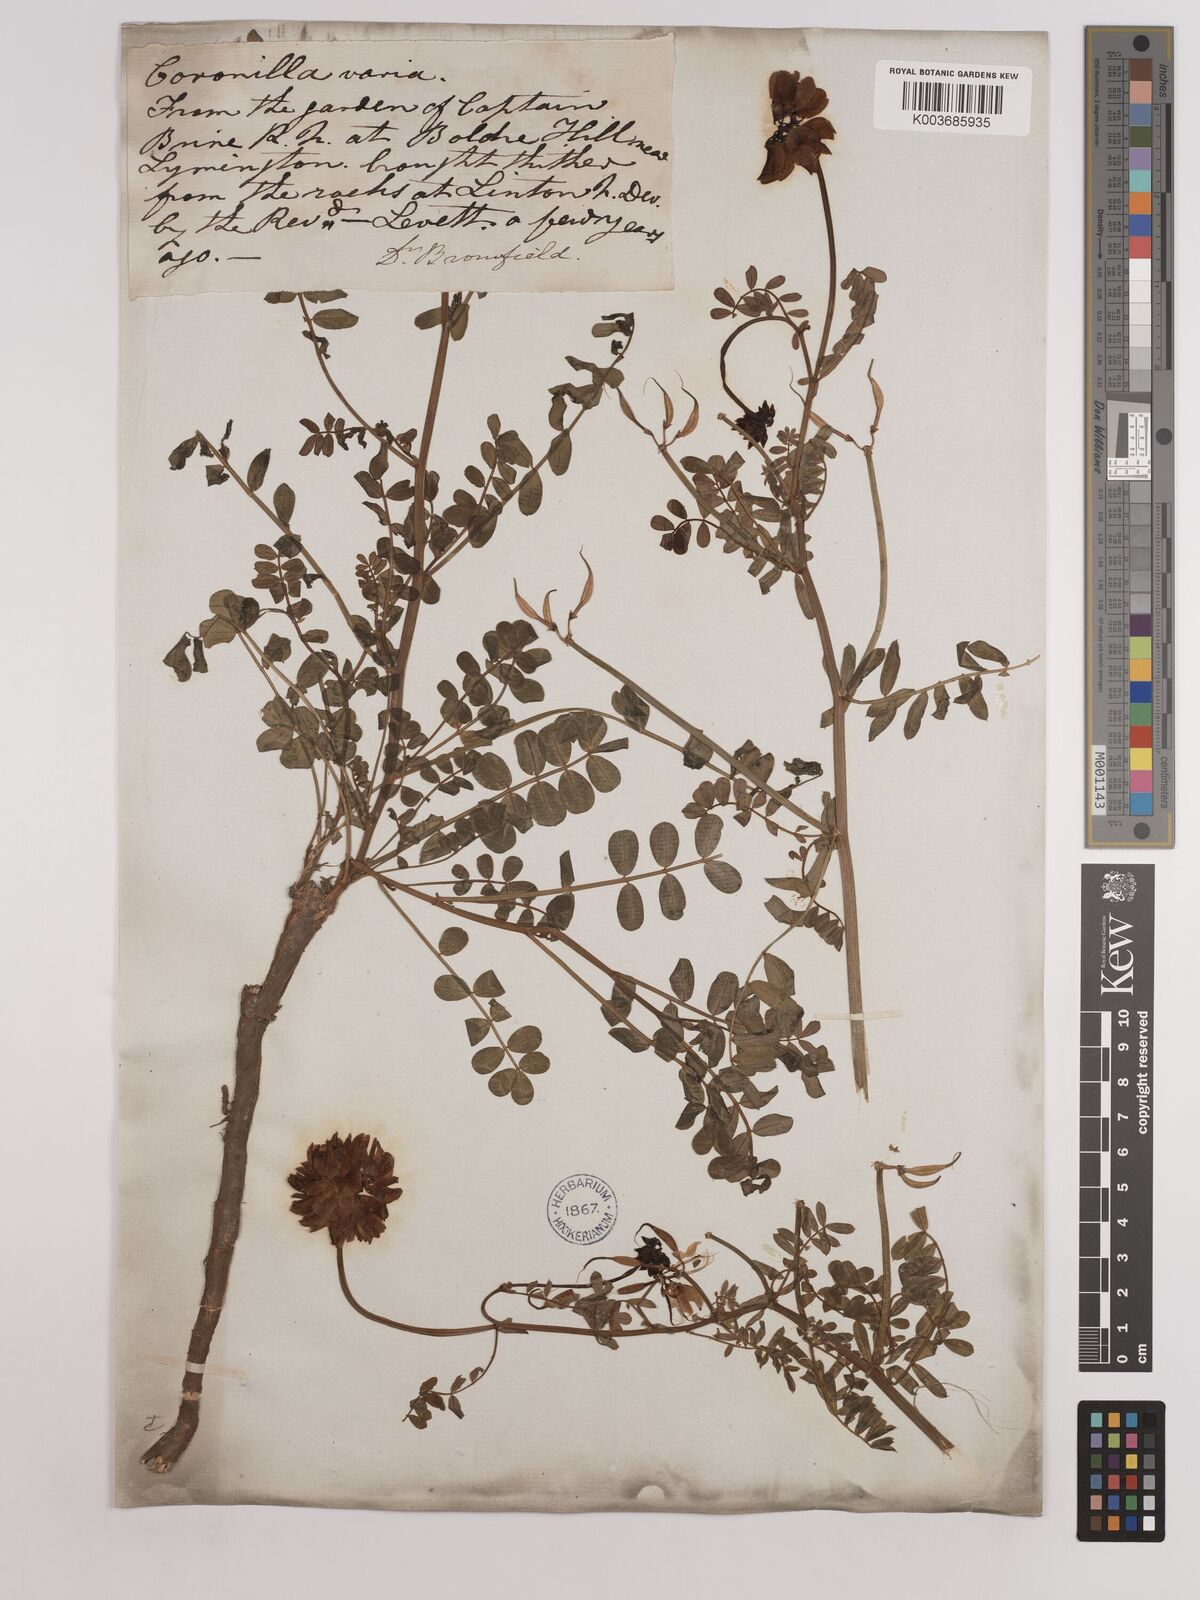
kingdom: Plantae
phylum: Tracheophyta
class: Magnoliopsida
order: Fabales
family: Fabaceae
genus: Coronilla
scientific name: Coronilla varia
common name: Crownvetch
